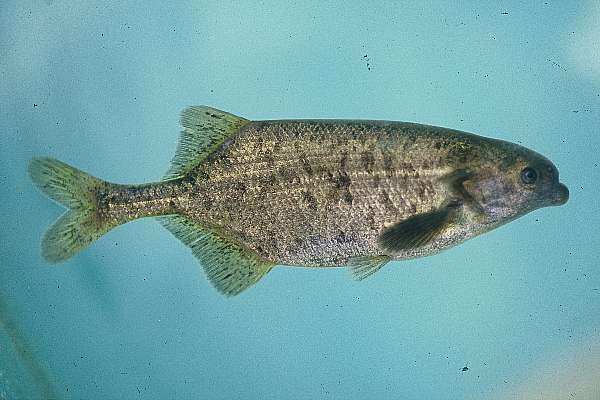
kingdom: Animalia
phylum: Chordata
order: Osteoglossiformes
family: Mormyridae
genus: Marcusenius
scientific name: Marcusenius macrolepidotus
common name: Bulldog
